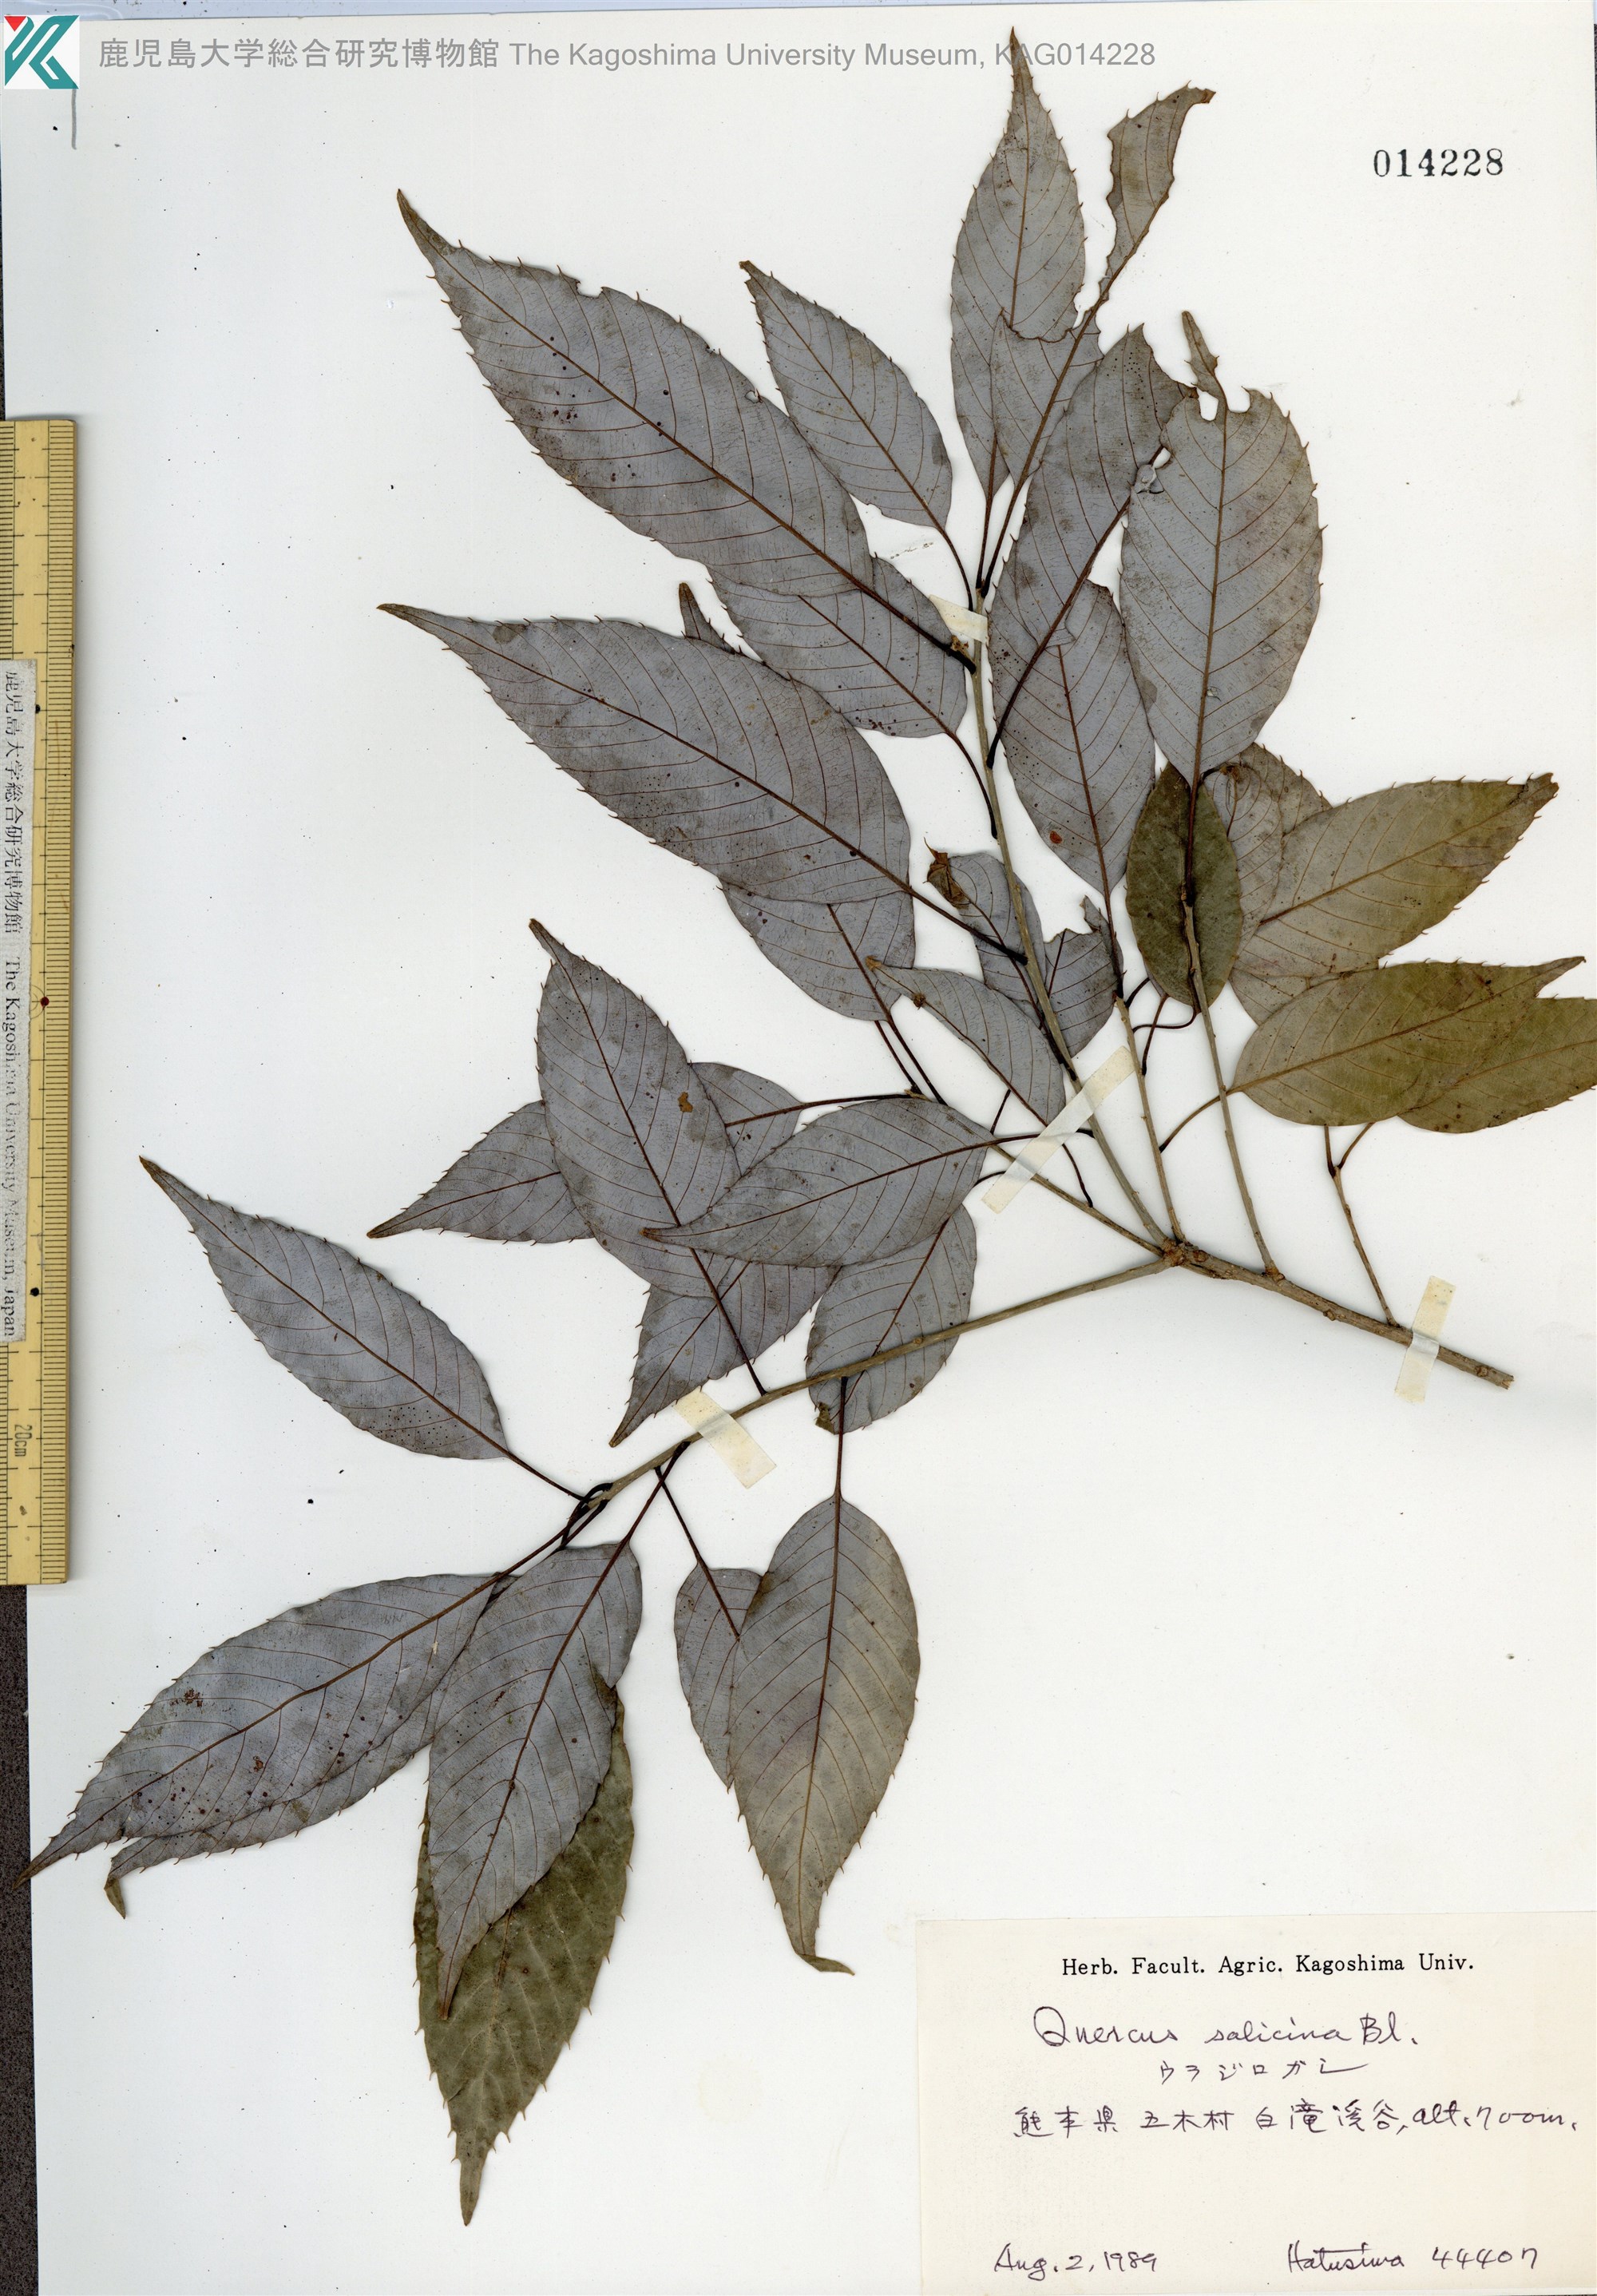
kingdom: Plantae
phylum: Tracheophyta
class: Magnoliopsida
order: Fagales
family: Fagaceae
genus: Quercus
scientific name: Quercus salicina
